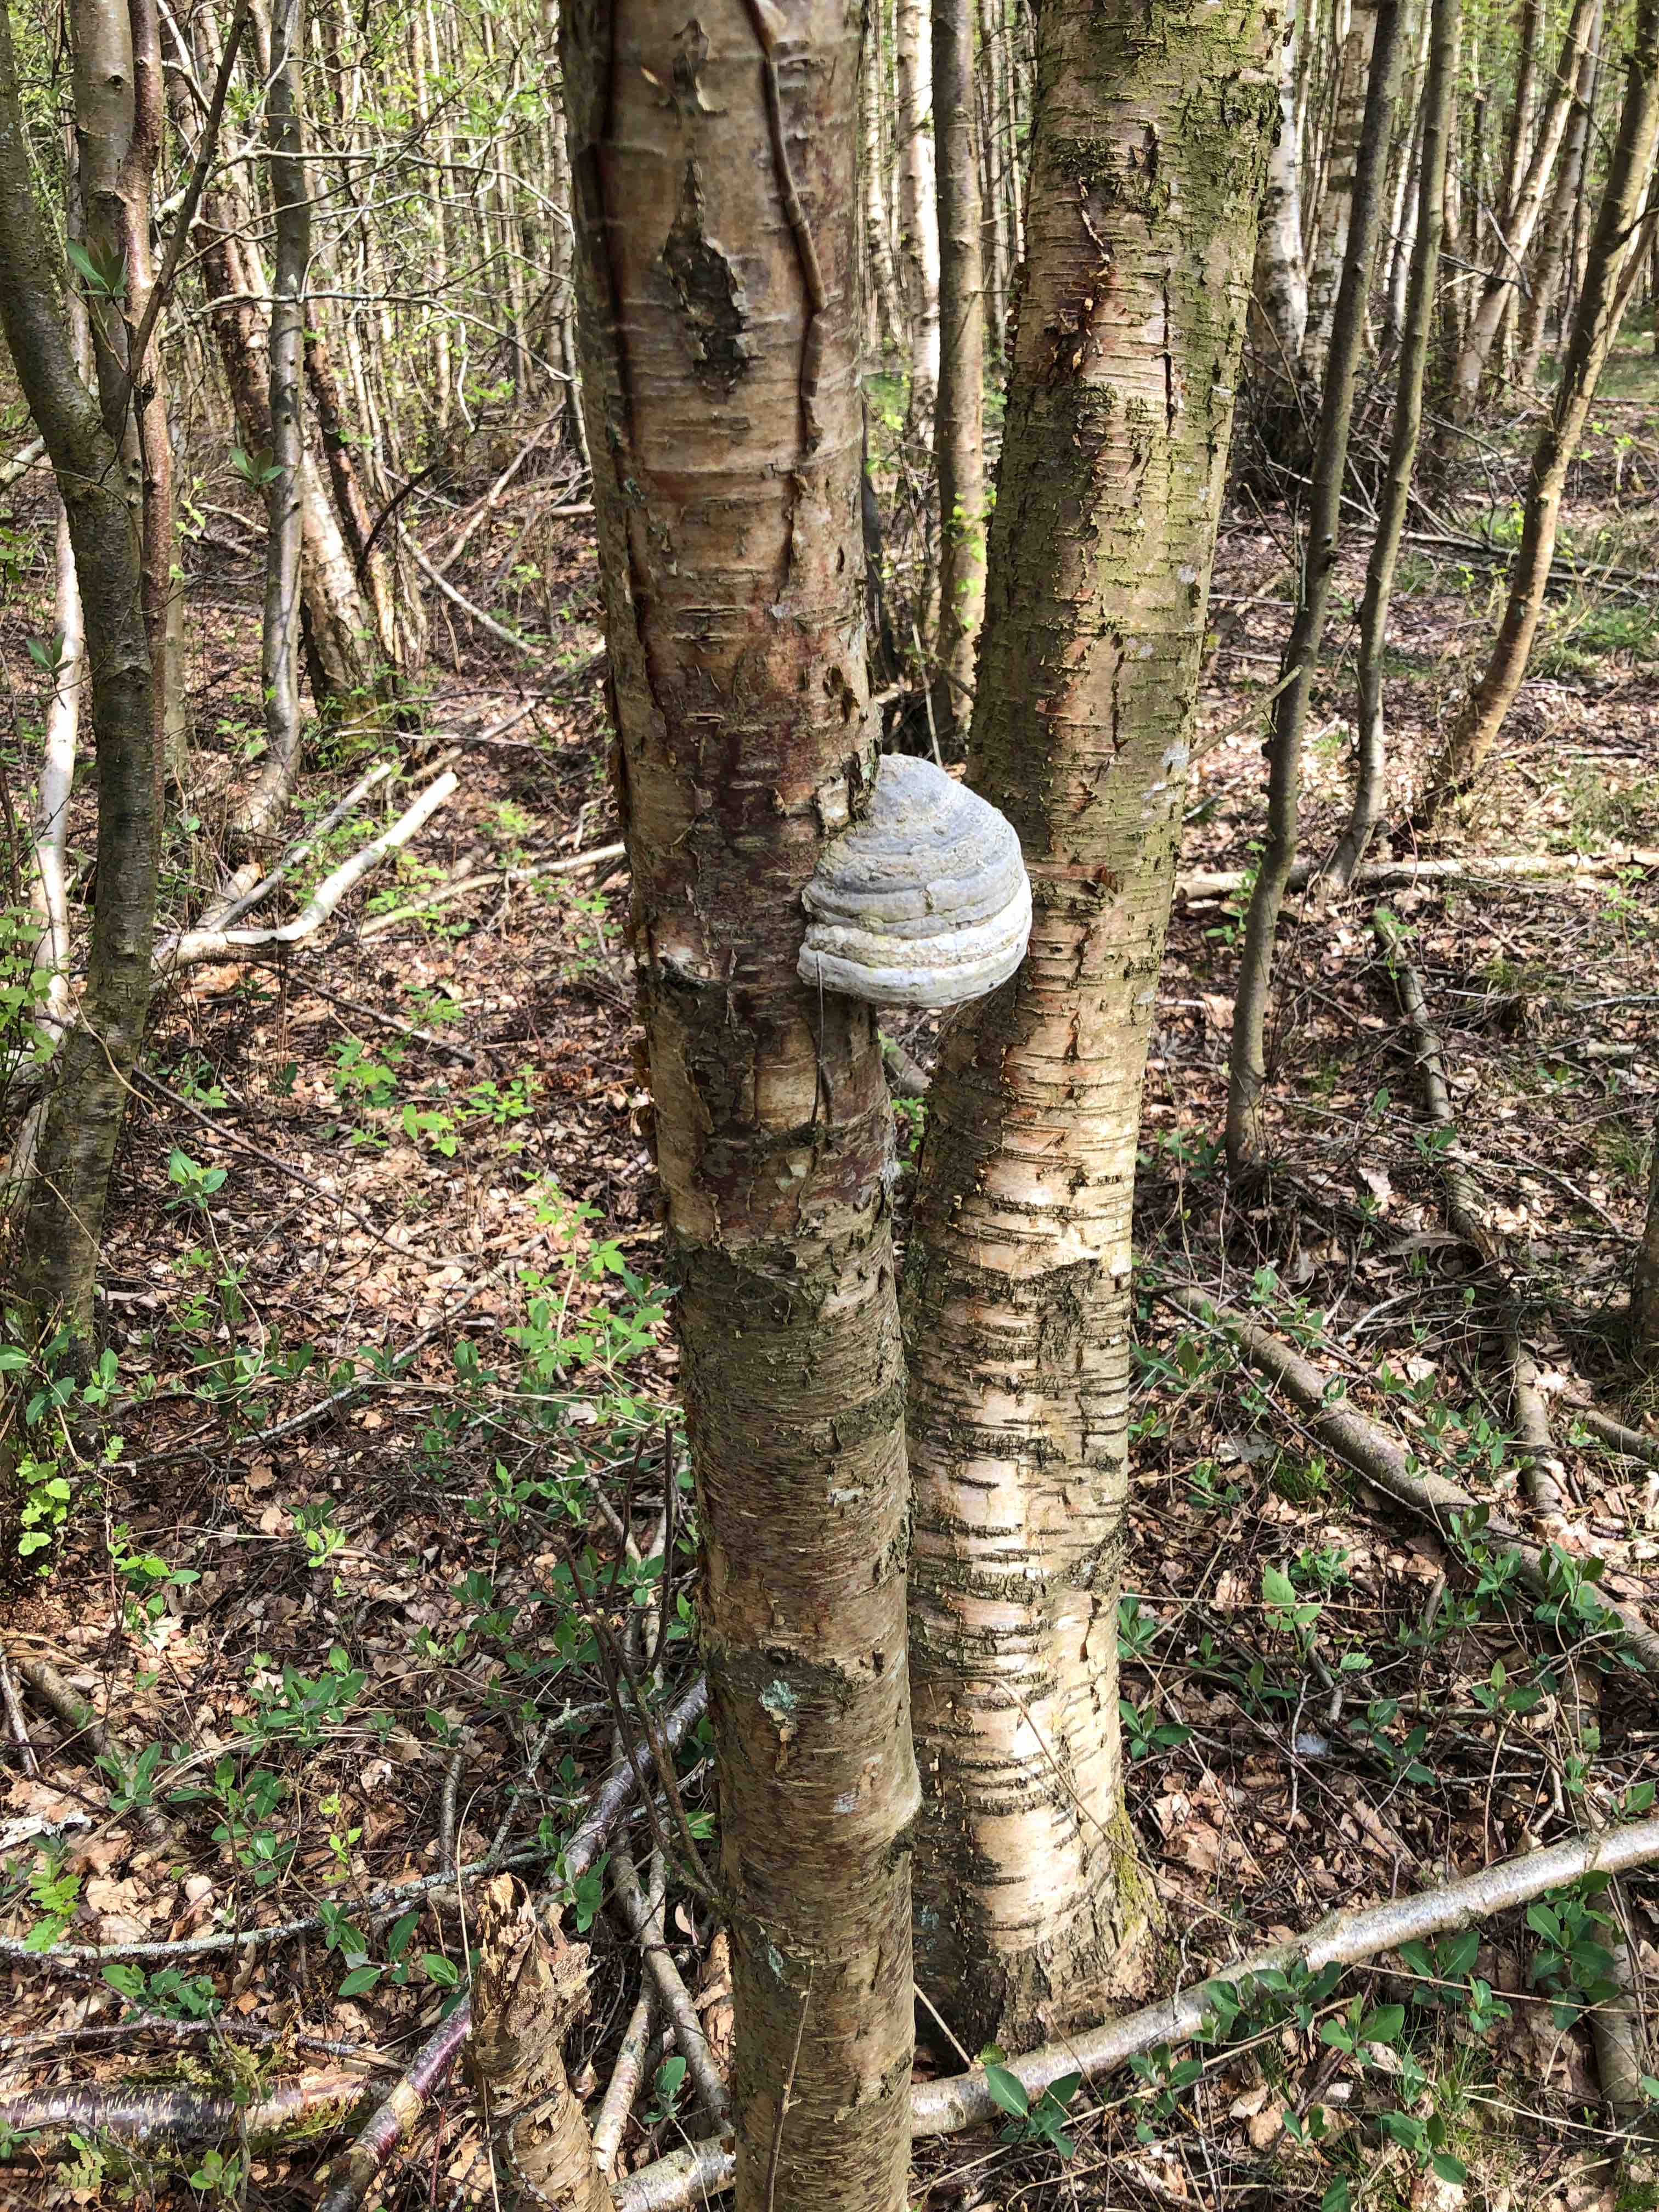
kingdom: Fungi
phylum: Basidiomycota
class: Agaricomycetes
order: Polyporales
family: Polyporaceae
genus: Fomes
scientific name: Fomes fomentarius
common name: tøndersvamp
